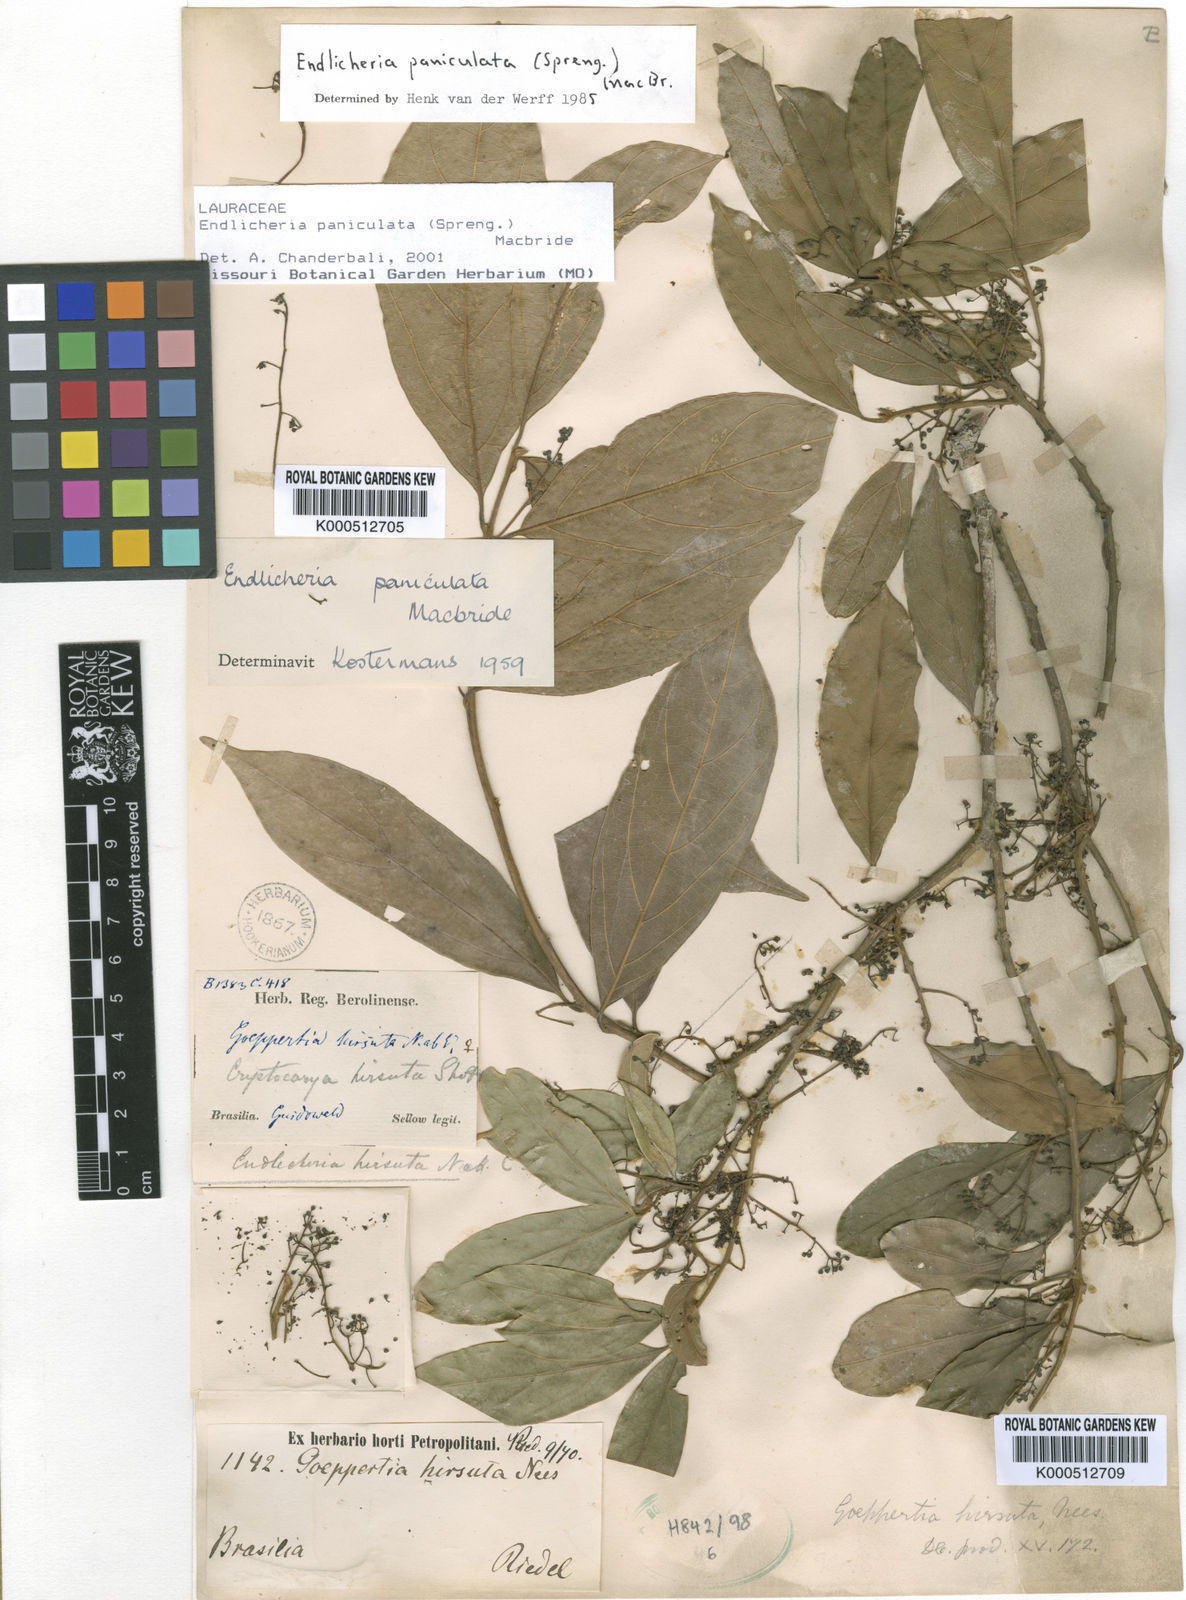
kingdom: Plantae
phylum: Tracheophyta
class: Magnoliopsida
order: Laurales
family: Lauraceae
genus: Endlicheria
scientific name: Endlicheria paniculata
